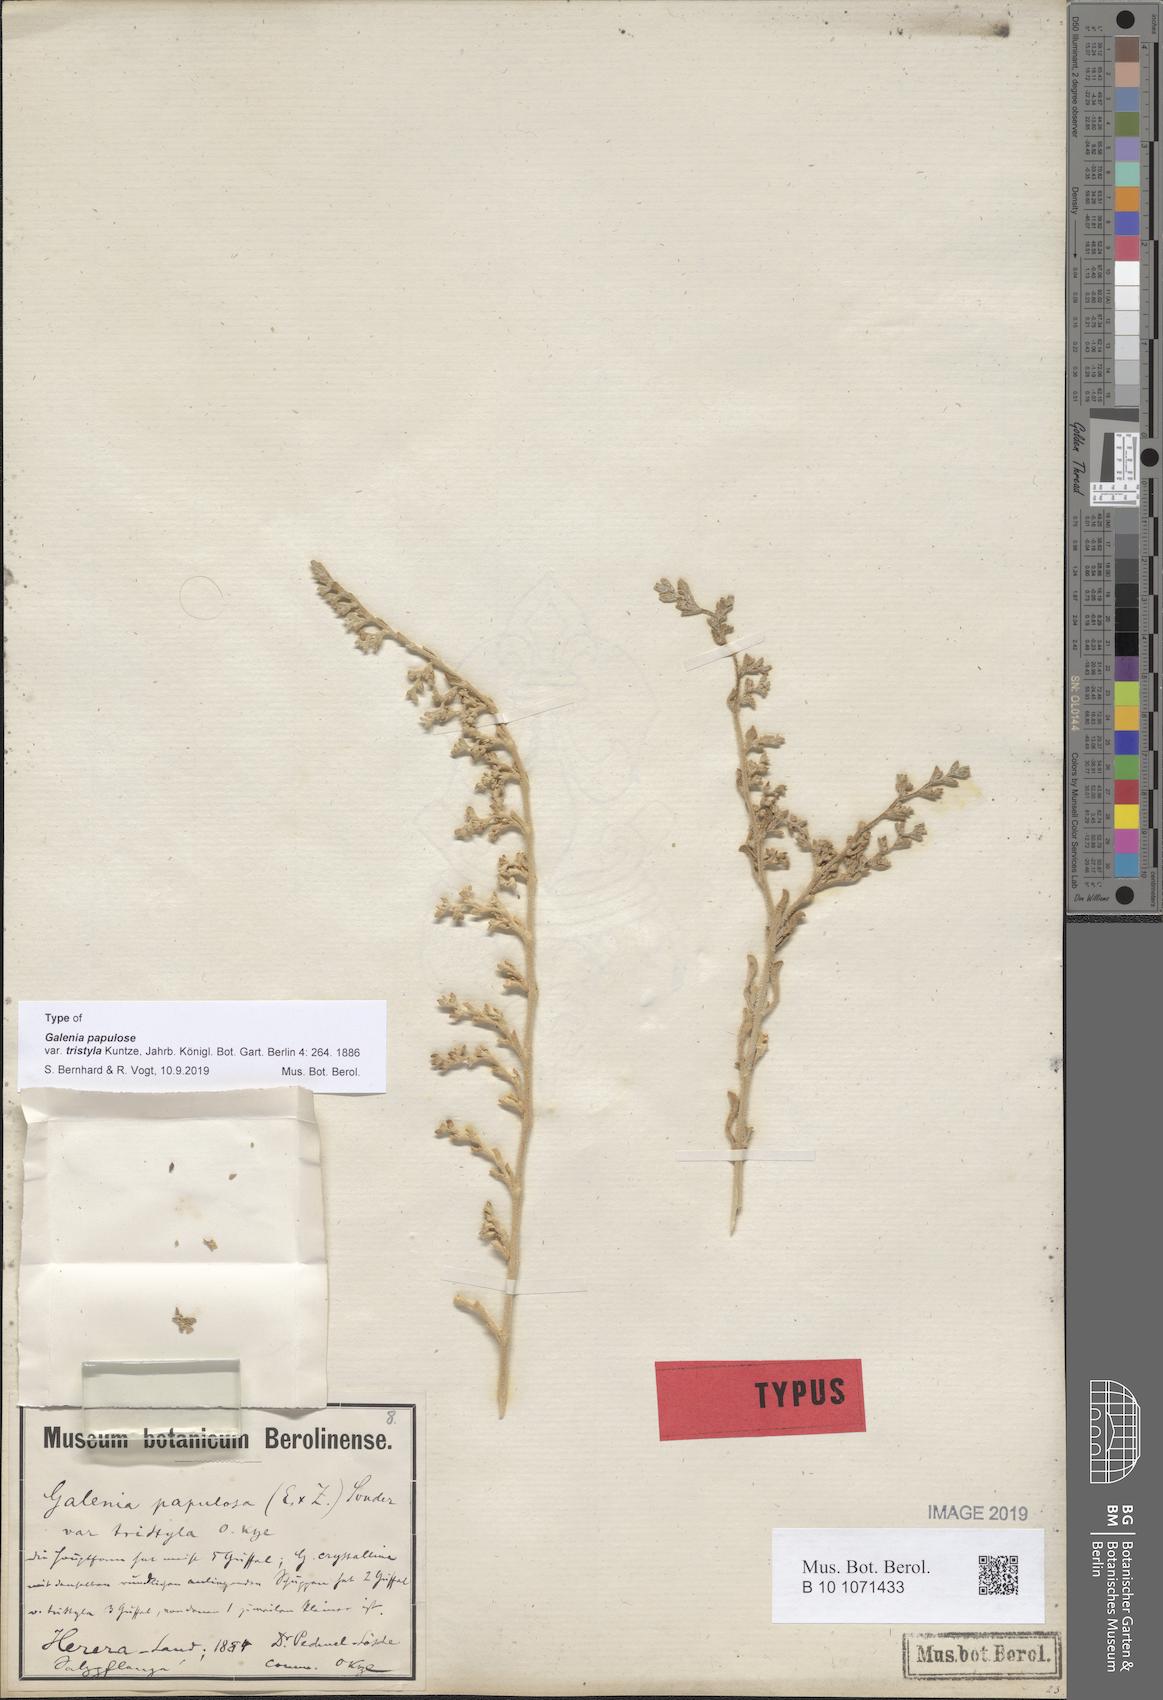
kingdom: Plantae
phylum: Tracheophyta
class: Magnoliopsida
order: Caryophyllales
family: Aizoaceae
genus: Aizoon
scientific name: Aizoon papulosum
